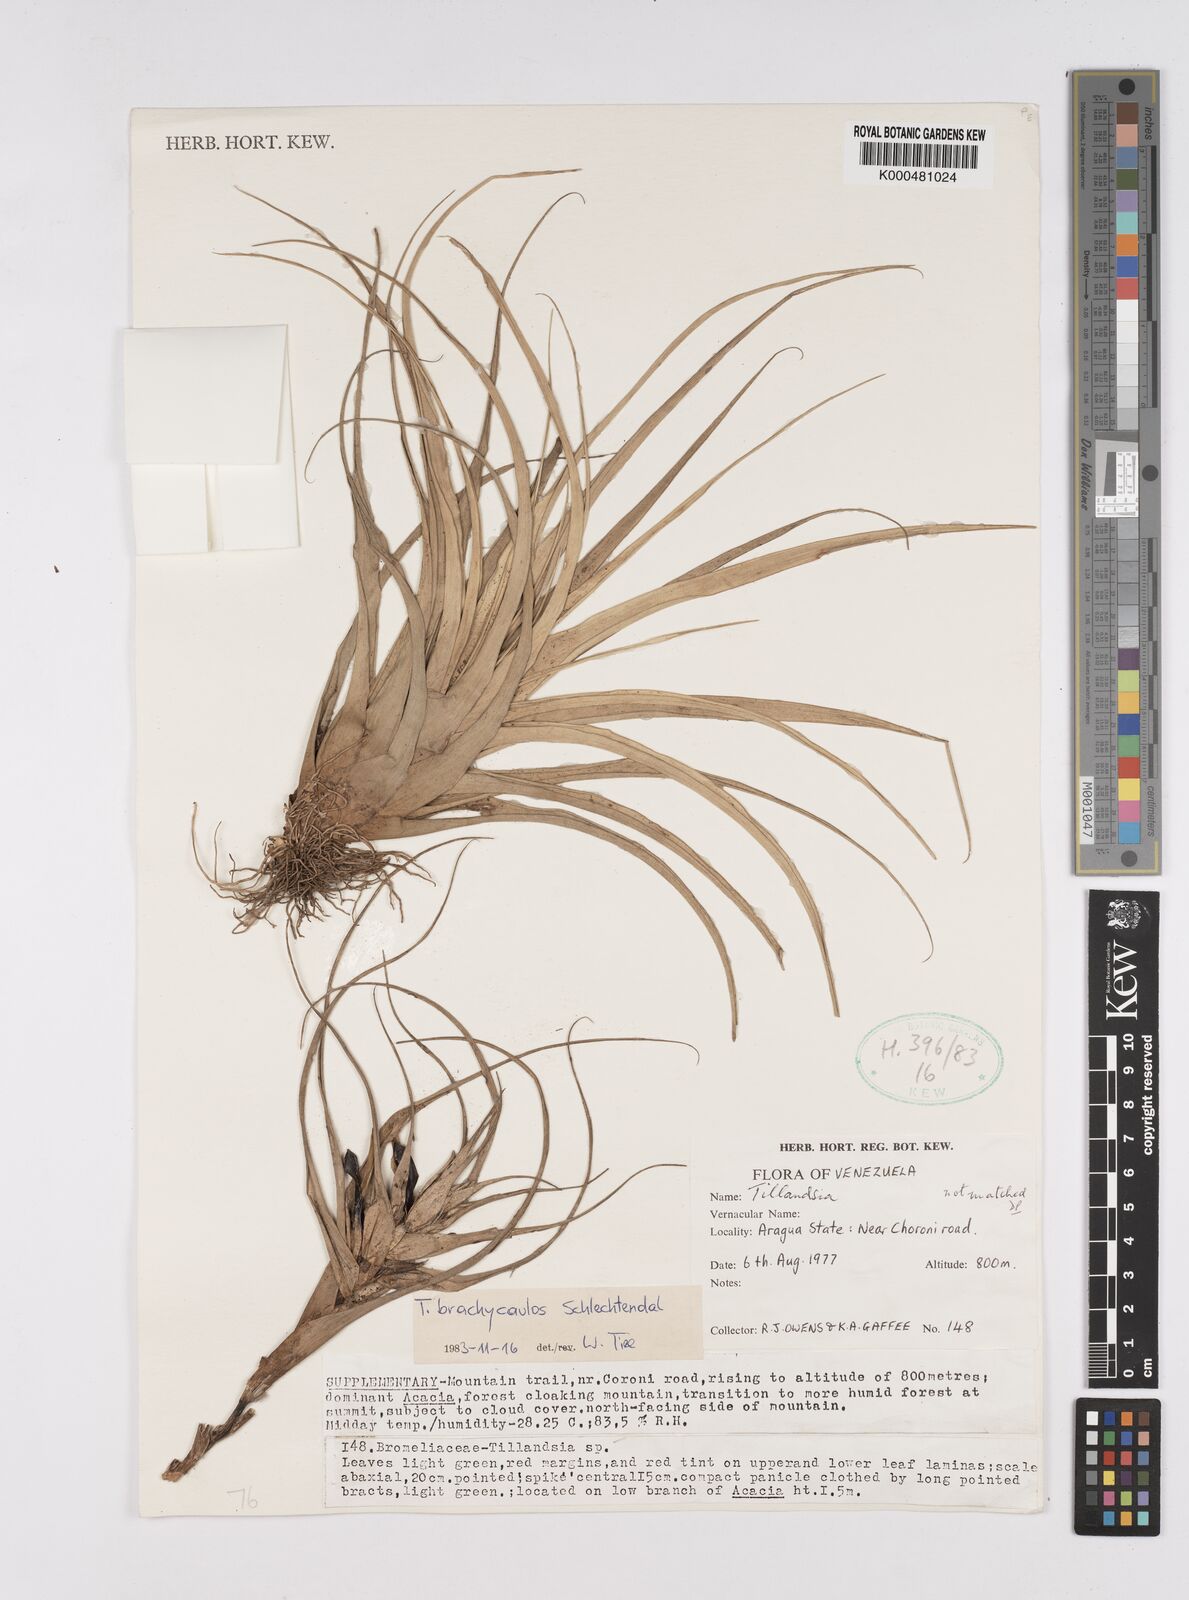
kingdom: Plantae
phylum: Tracheophyta
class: Liliopsida
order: Poales
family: Bromeliaceae
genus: Tillandsia
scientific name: Tillandsia brachycaulos
